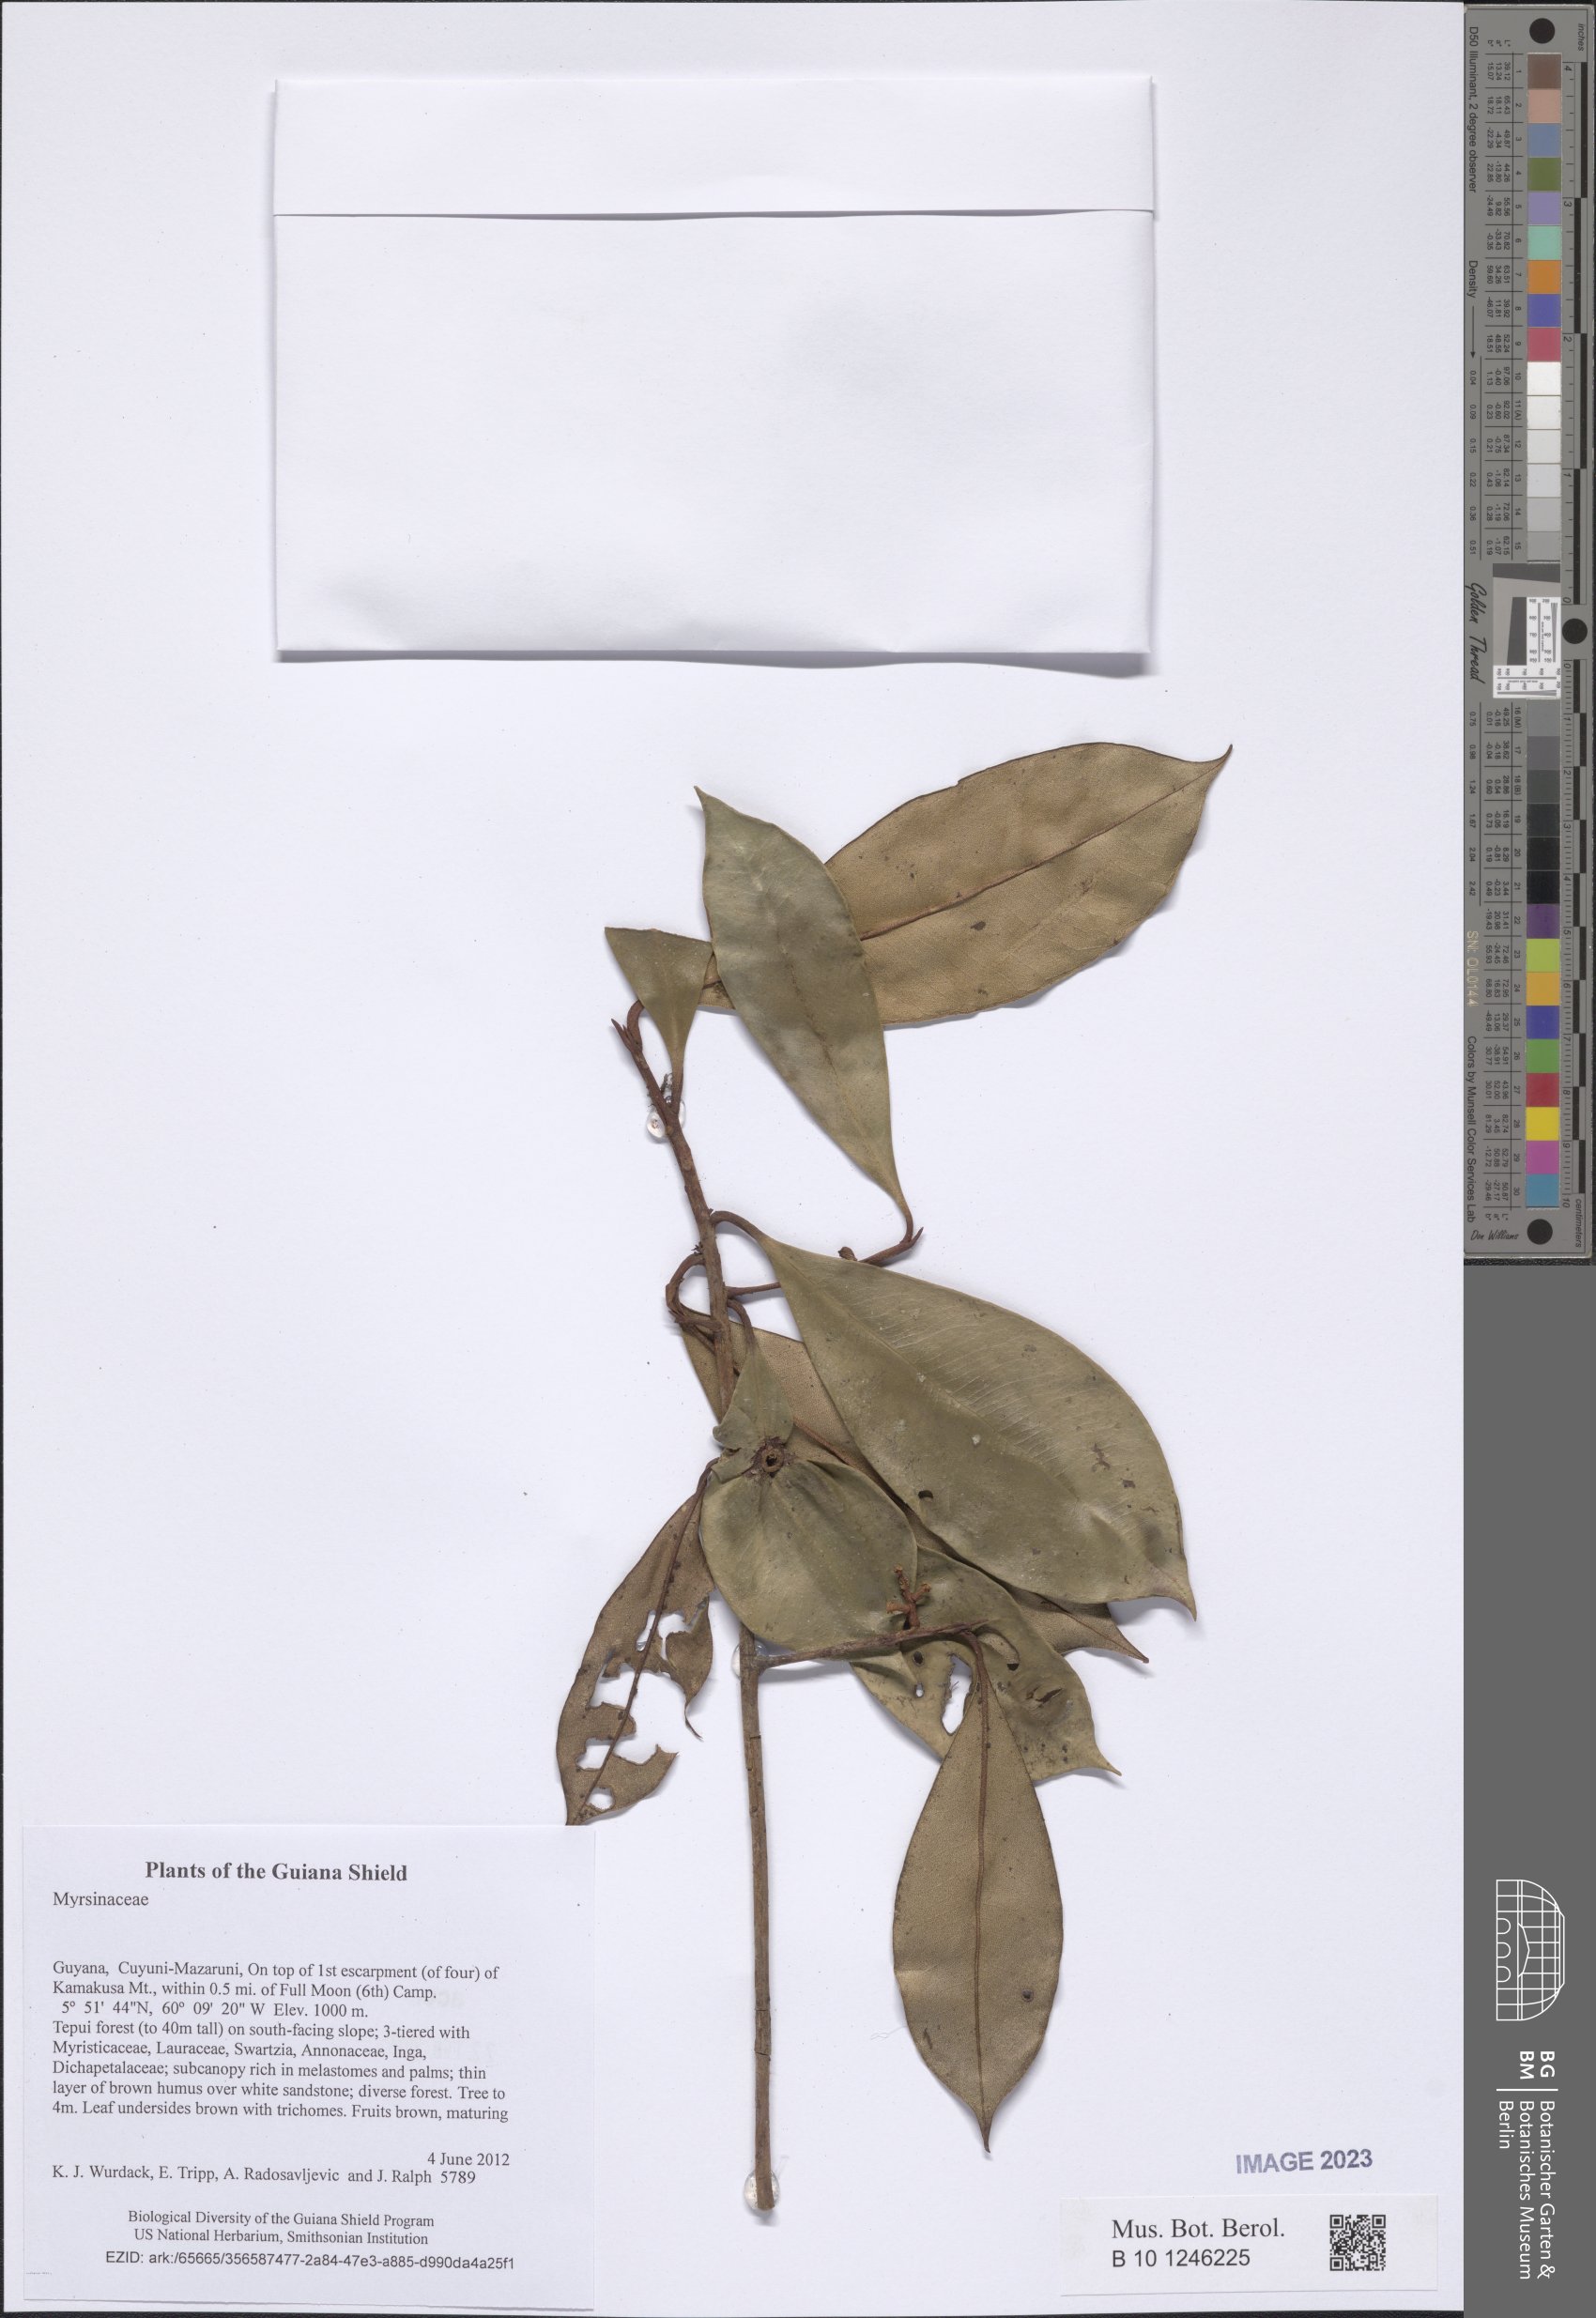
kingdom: Plantae
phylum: Tracheophyta
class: Magnoliopsida
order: Ericales
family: Primulaceae
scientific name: Primulaceae
